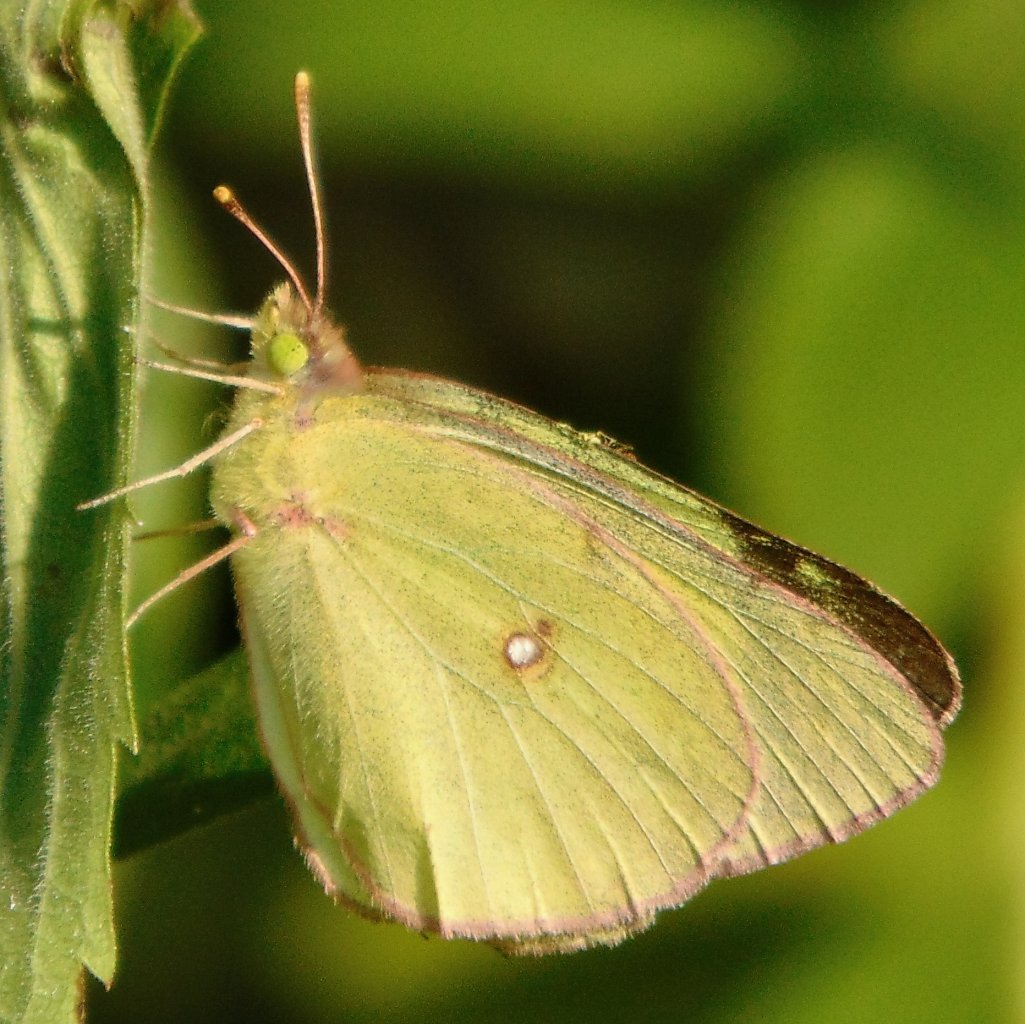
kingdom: Animalia
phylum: Arthropoda
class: Insecta
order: Lepidoptera
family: Pieridae
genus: Colias
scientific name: Colias philodice
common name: Clouded Sulphur
